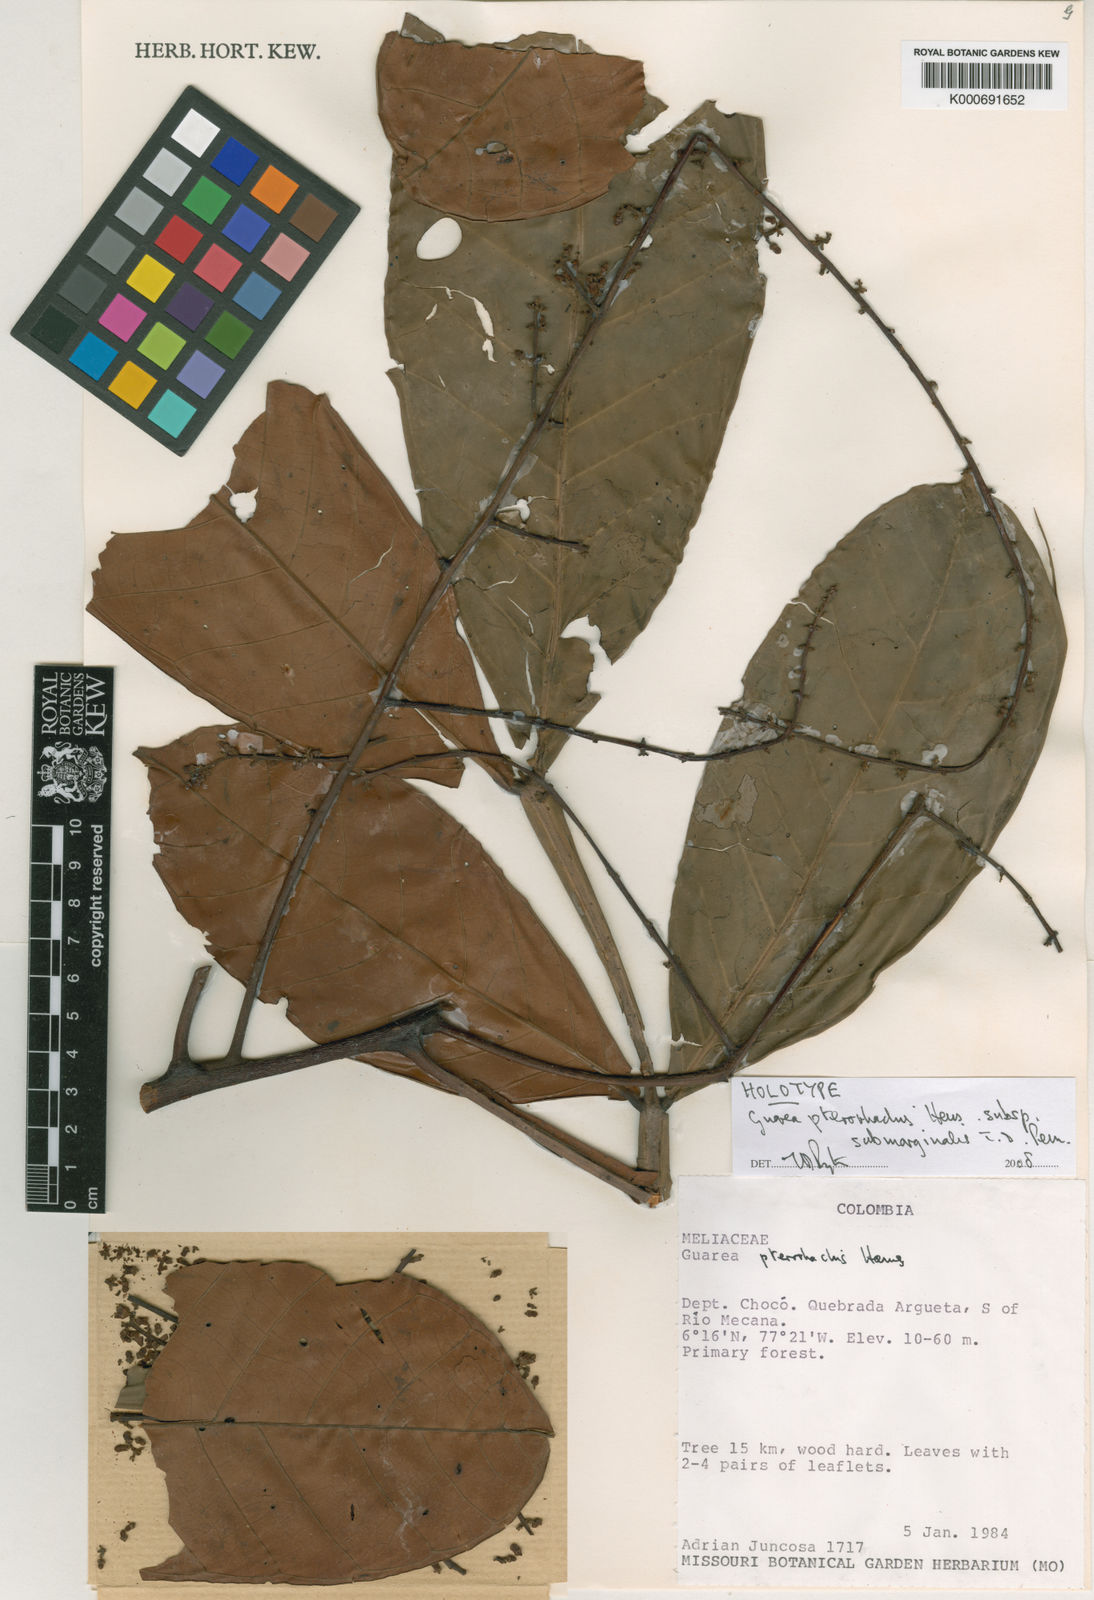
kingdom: Plantae
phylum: Tracheophyta
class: Magnoliopsida
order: Sapindales
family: Meliaceae
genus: Guarea
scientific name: Guarea pterorhachis
